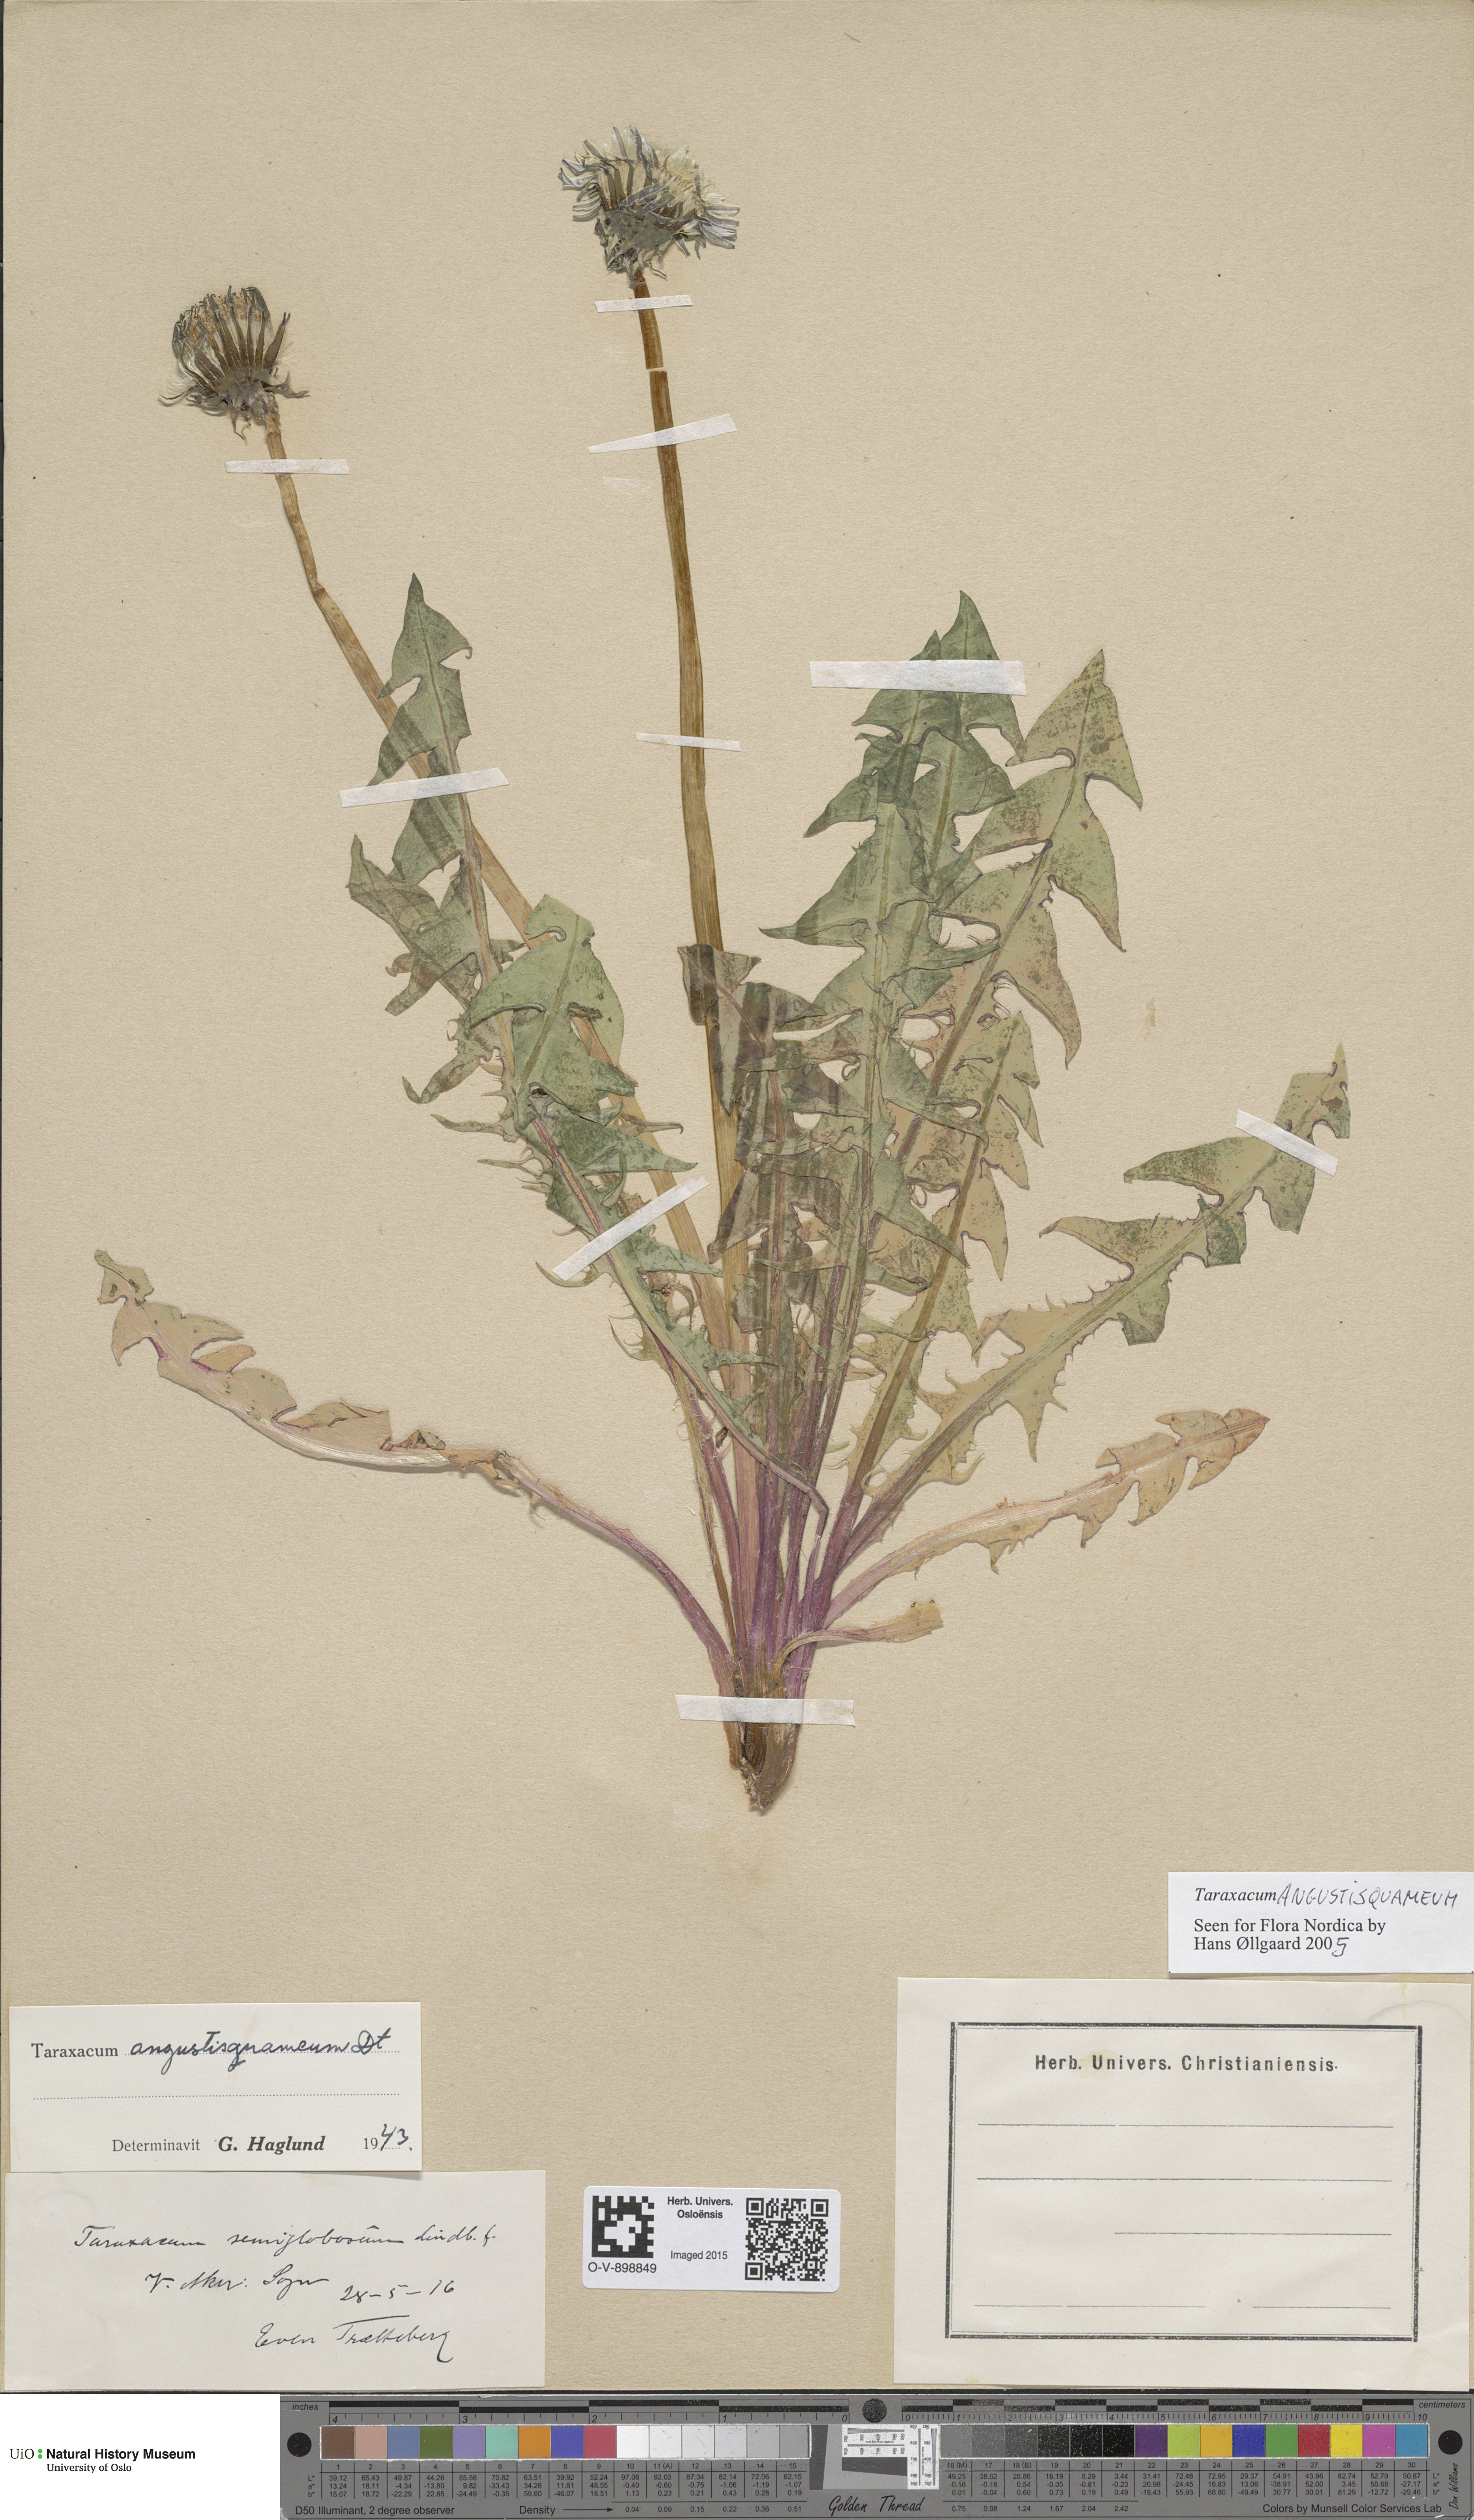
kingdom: Plantae
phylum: Tracheophyta
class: Magnoliopsida
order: Asterales
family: Asteraceae
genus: Taraxacum
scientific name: Taraxacum angustisquameum
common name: Multilobed dandelion
